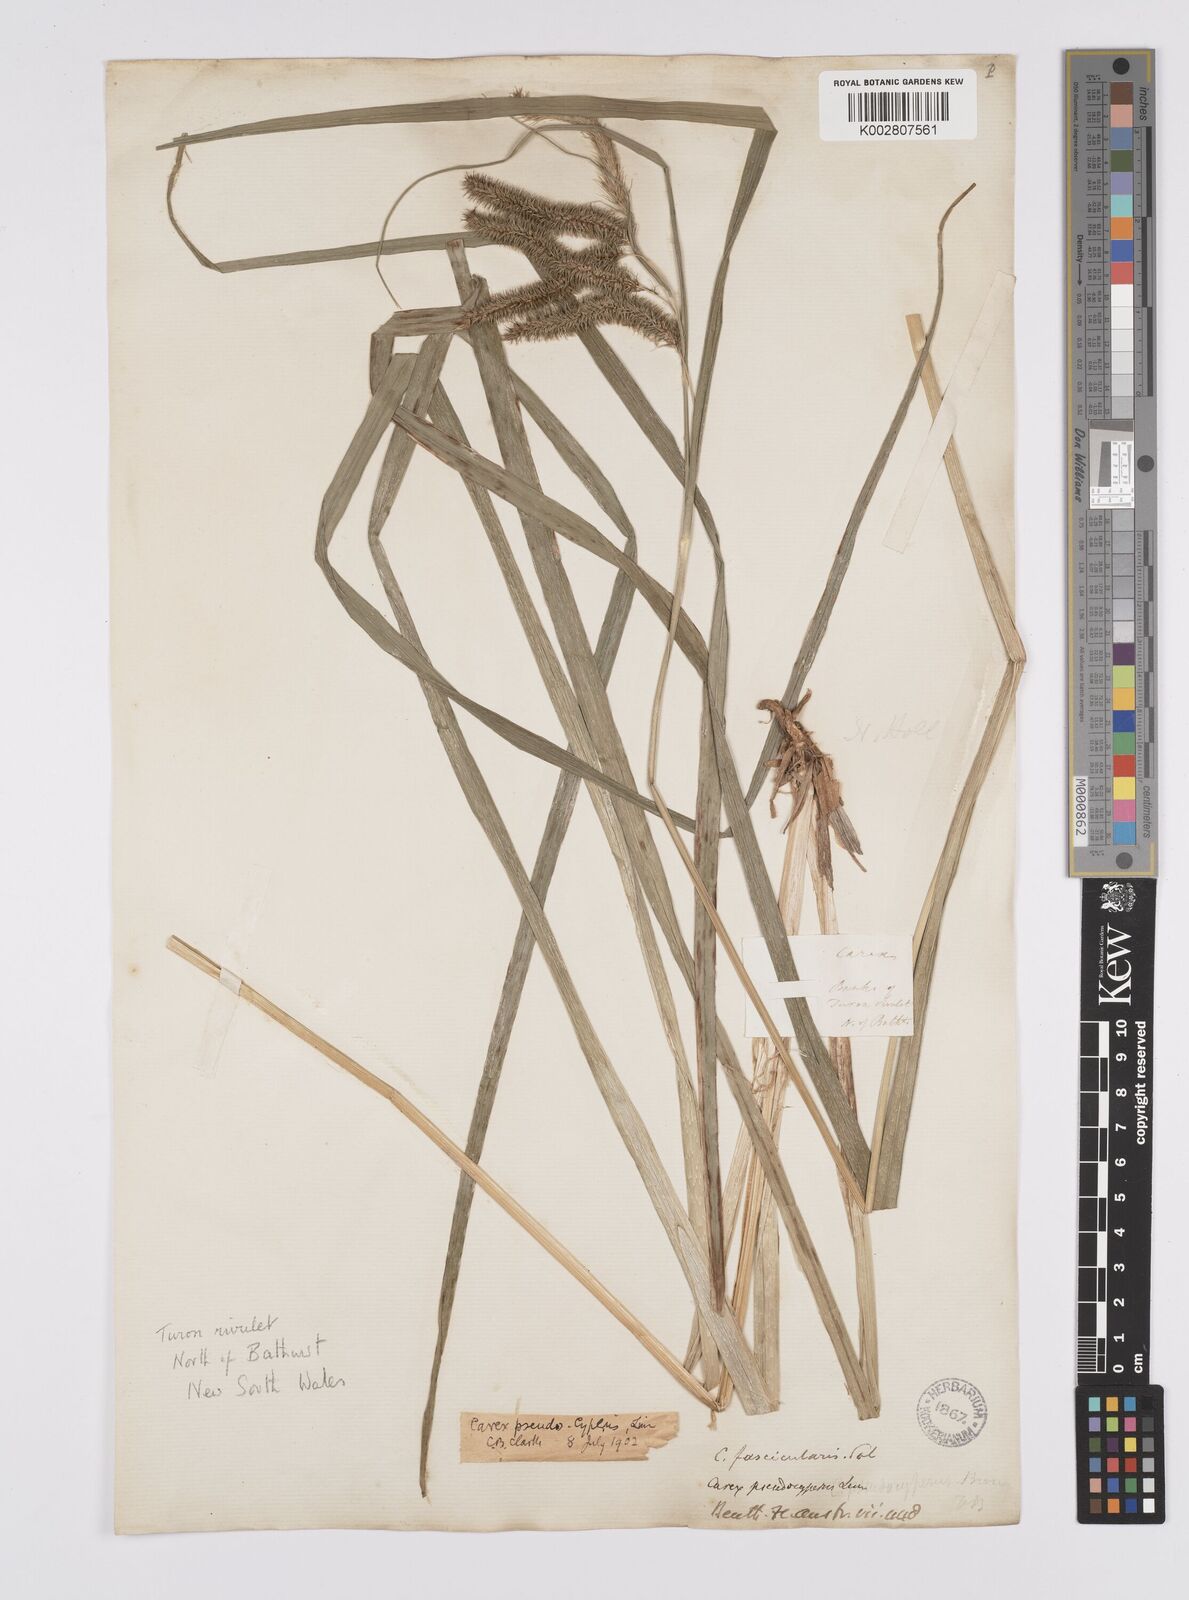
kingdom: Plantae
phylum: Tracheophyta
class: Liliopsida
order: Poales
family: Cyperaceae
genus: Carex
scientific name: Carex fascicularis
